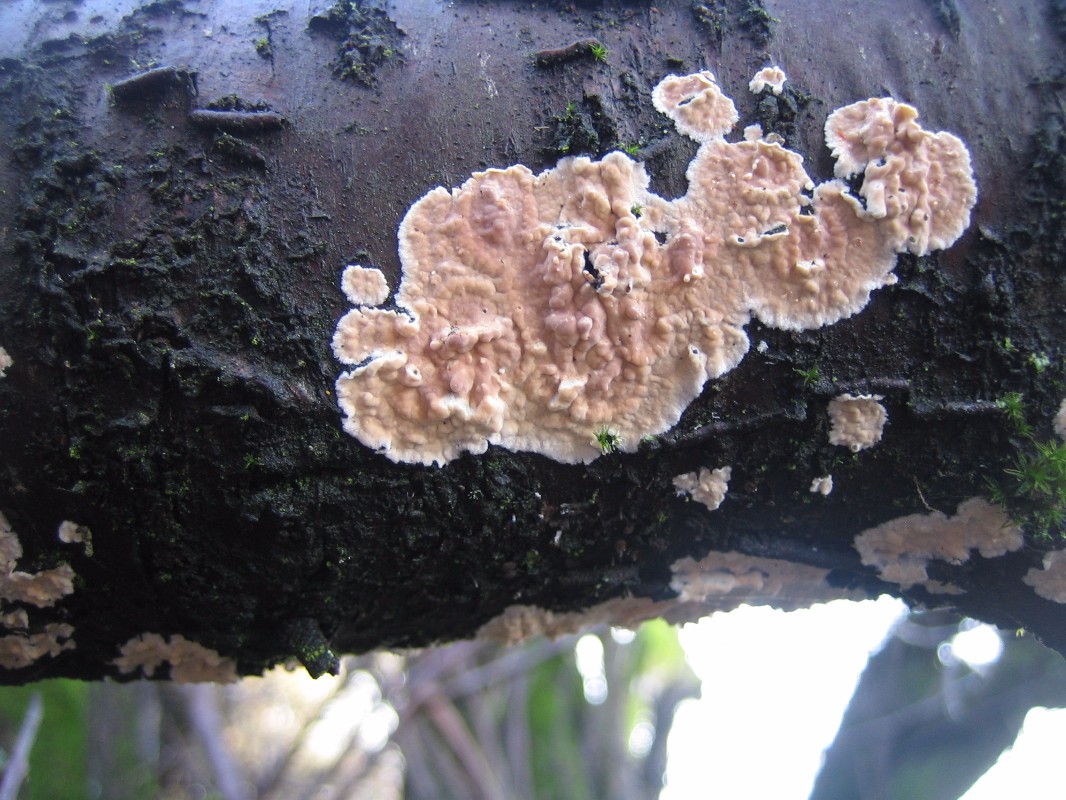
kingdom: Fungi
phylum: Basidiomycota
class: Agaricomycetes
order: Russulales
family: Peniophoraceae
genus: Peniophora
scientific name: Peniophora incarnata
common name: laksefarvet voksskind
